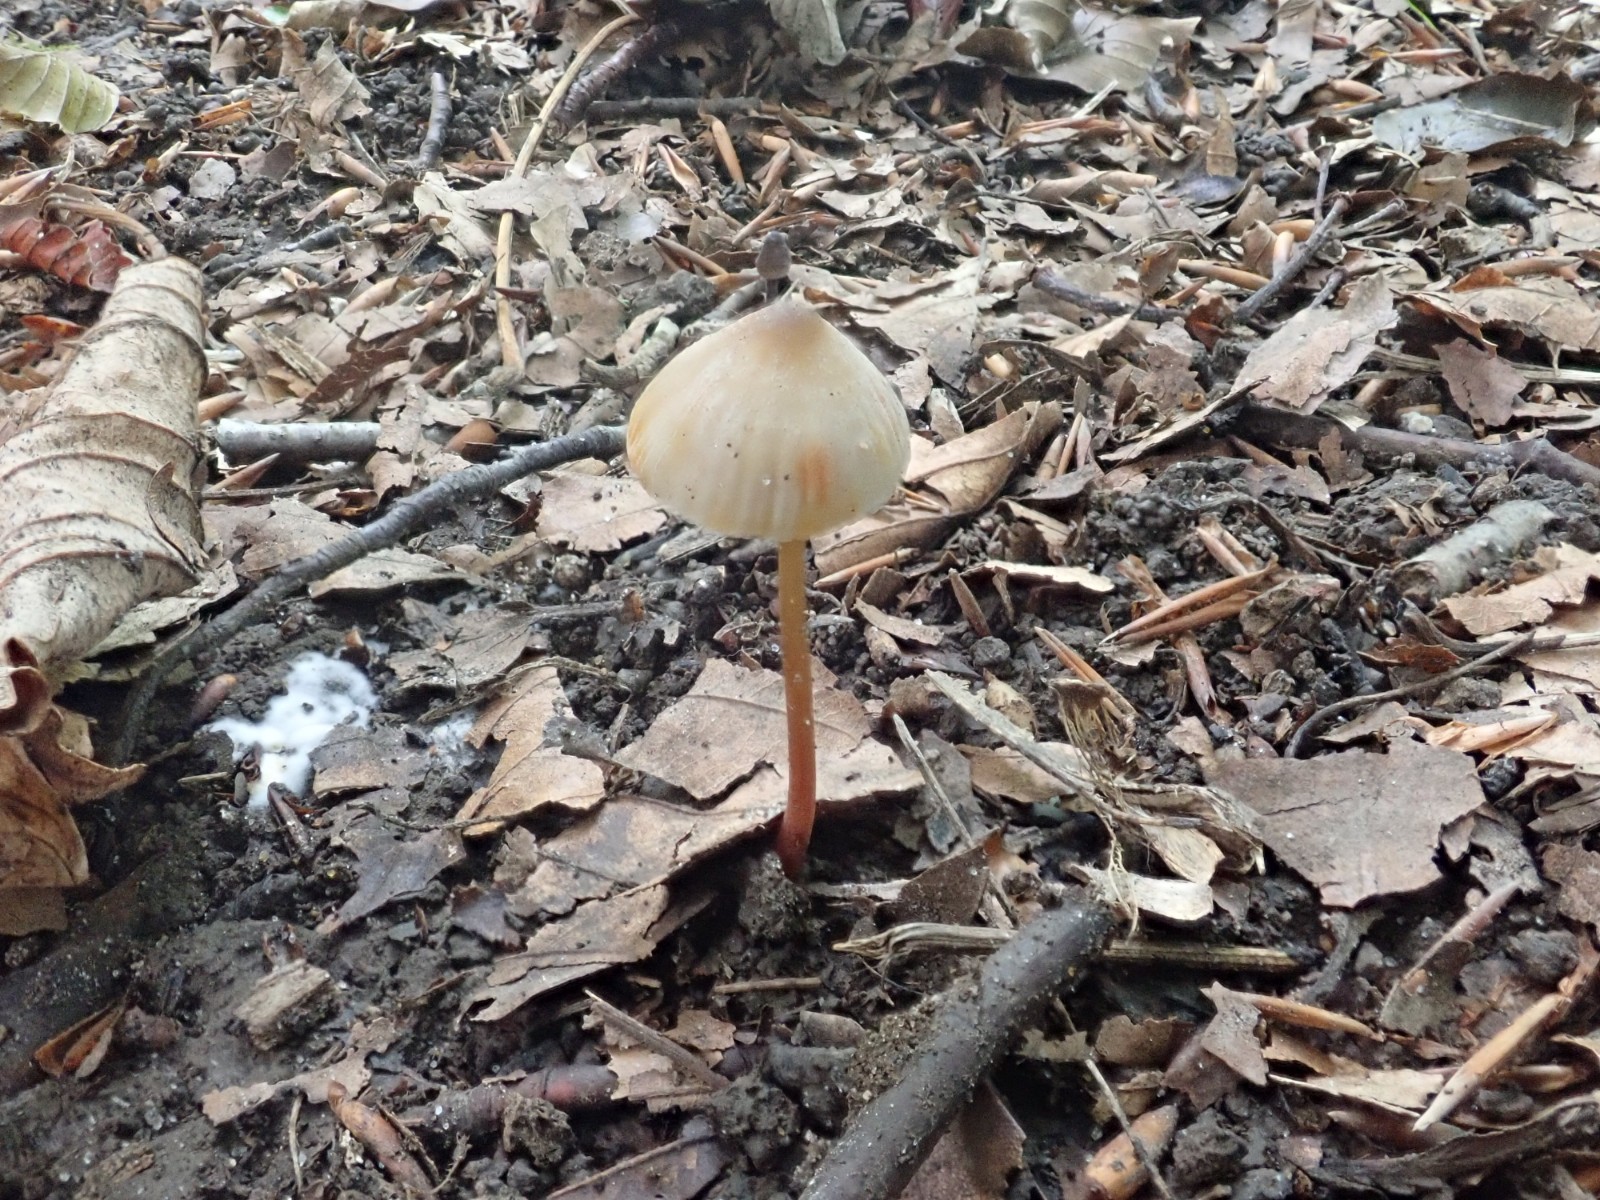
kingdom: Fungi
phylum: Basidiomycota
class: Agaricomycetes
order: Agaricales
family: Mycenaceae
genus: Mycena
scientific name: Mycena crocata
